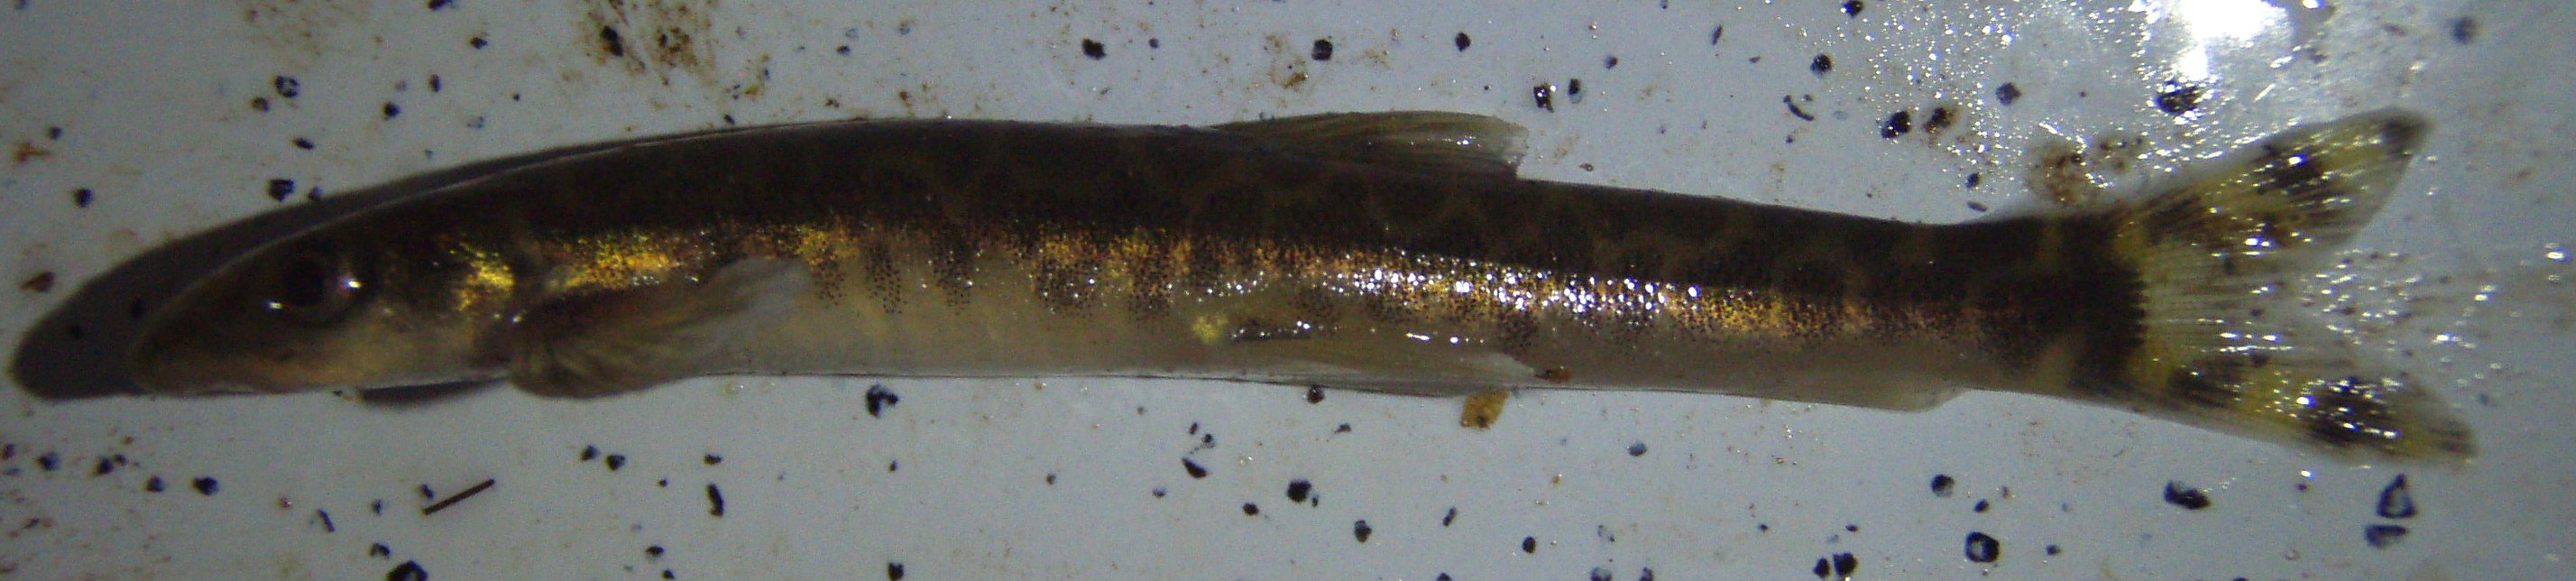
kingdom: Animalia
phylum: Chordata
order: Gonorynchiformes
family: Kneriidae
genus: Parakneria
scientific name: Parakneria
